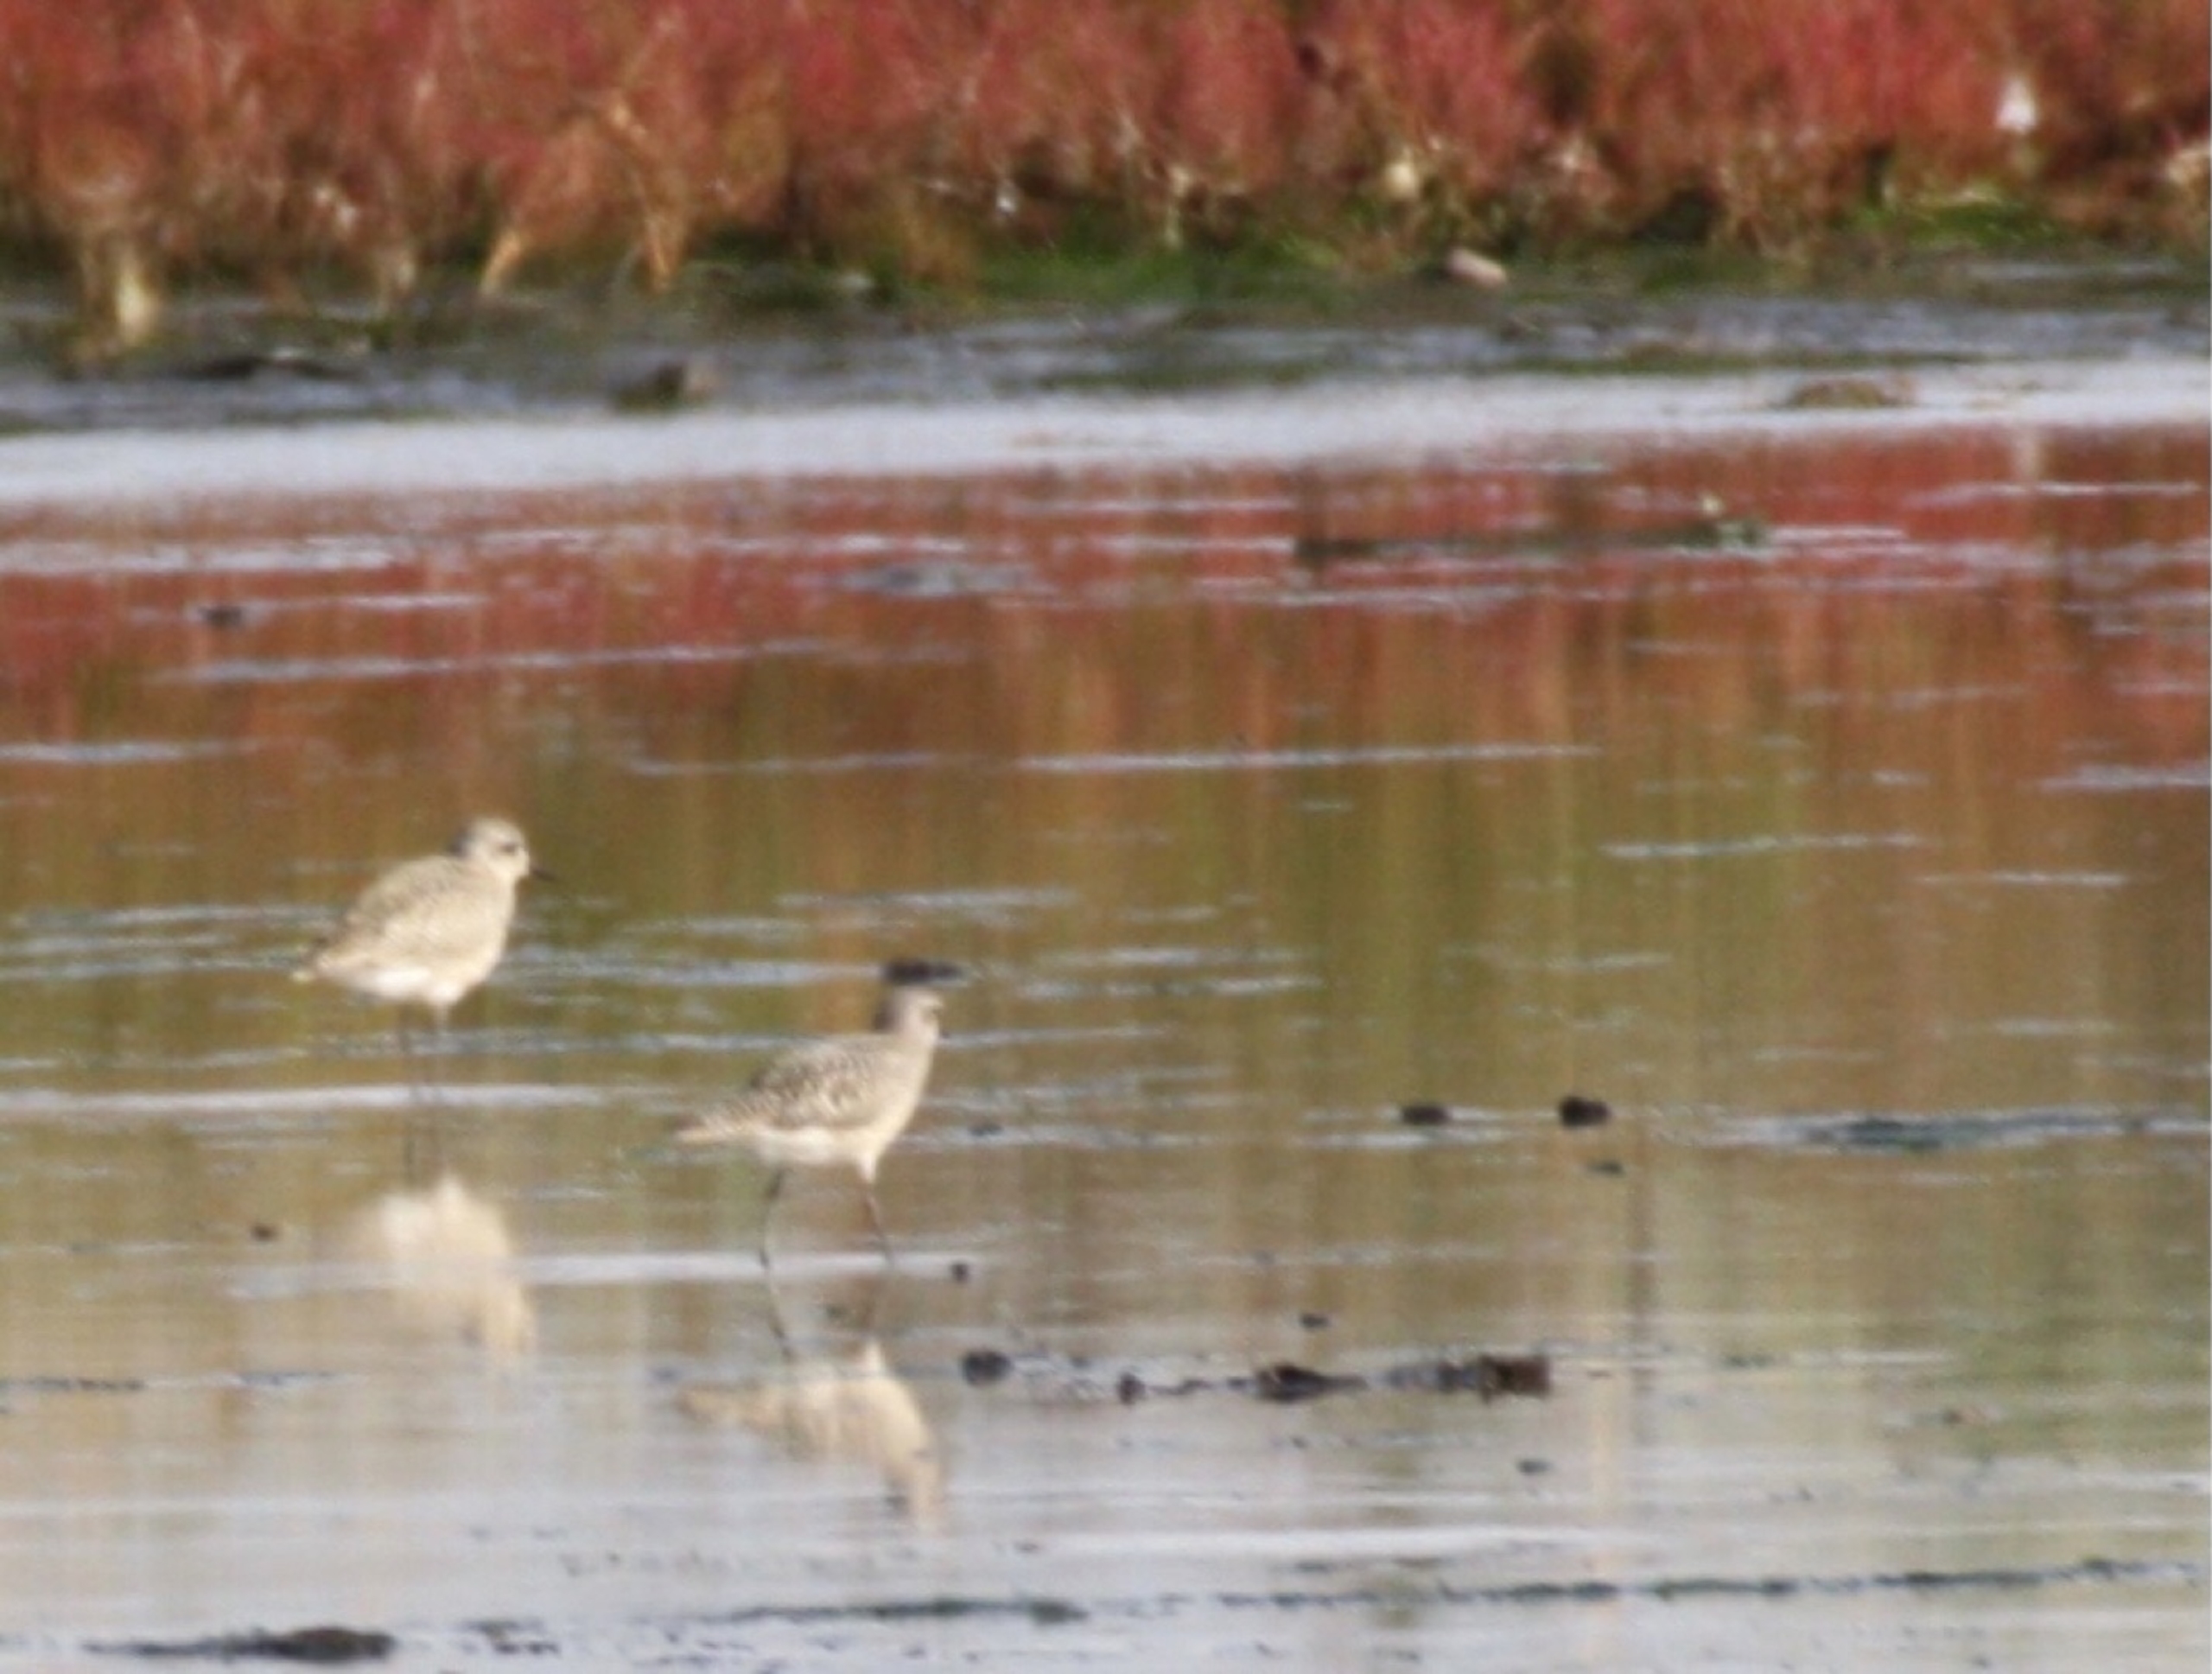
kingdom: Animalia
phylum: Chordata
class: Aves
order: Charadriiformes
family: Charadriidae
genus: Pluvialis
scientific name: Pluvialis squatarola
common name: Strandhjejle
